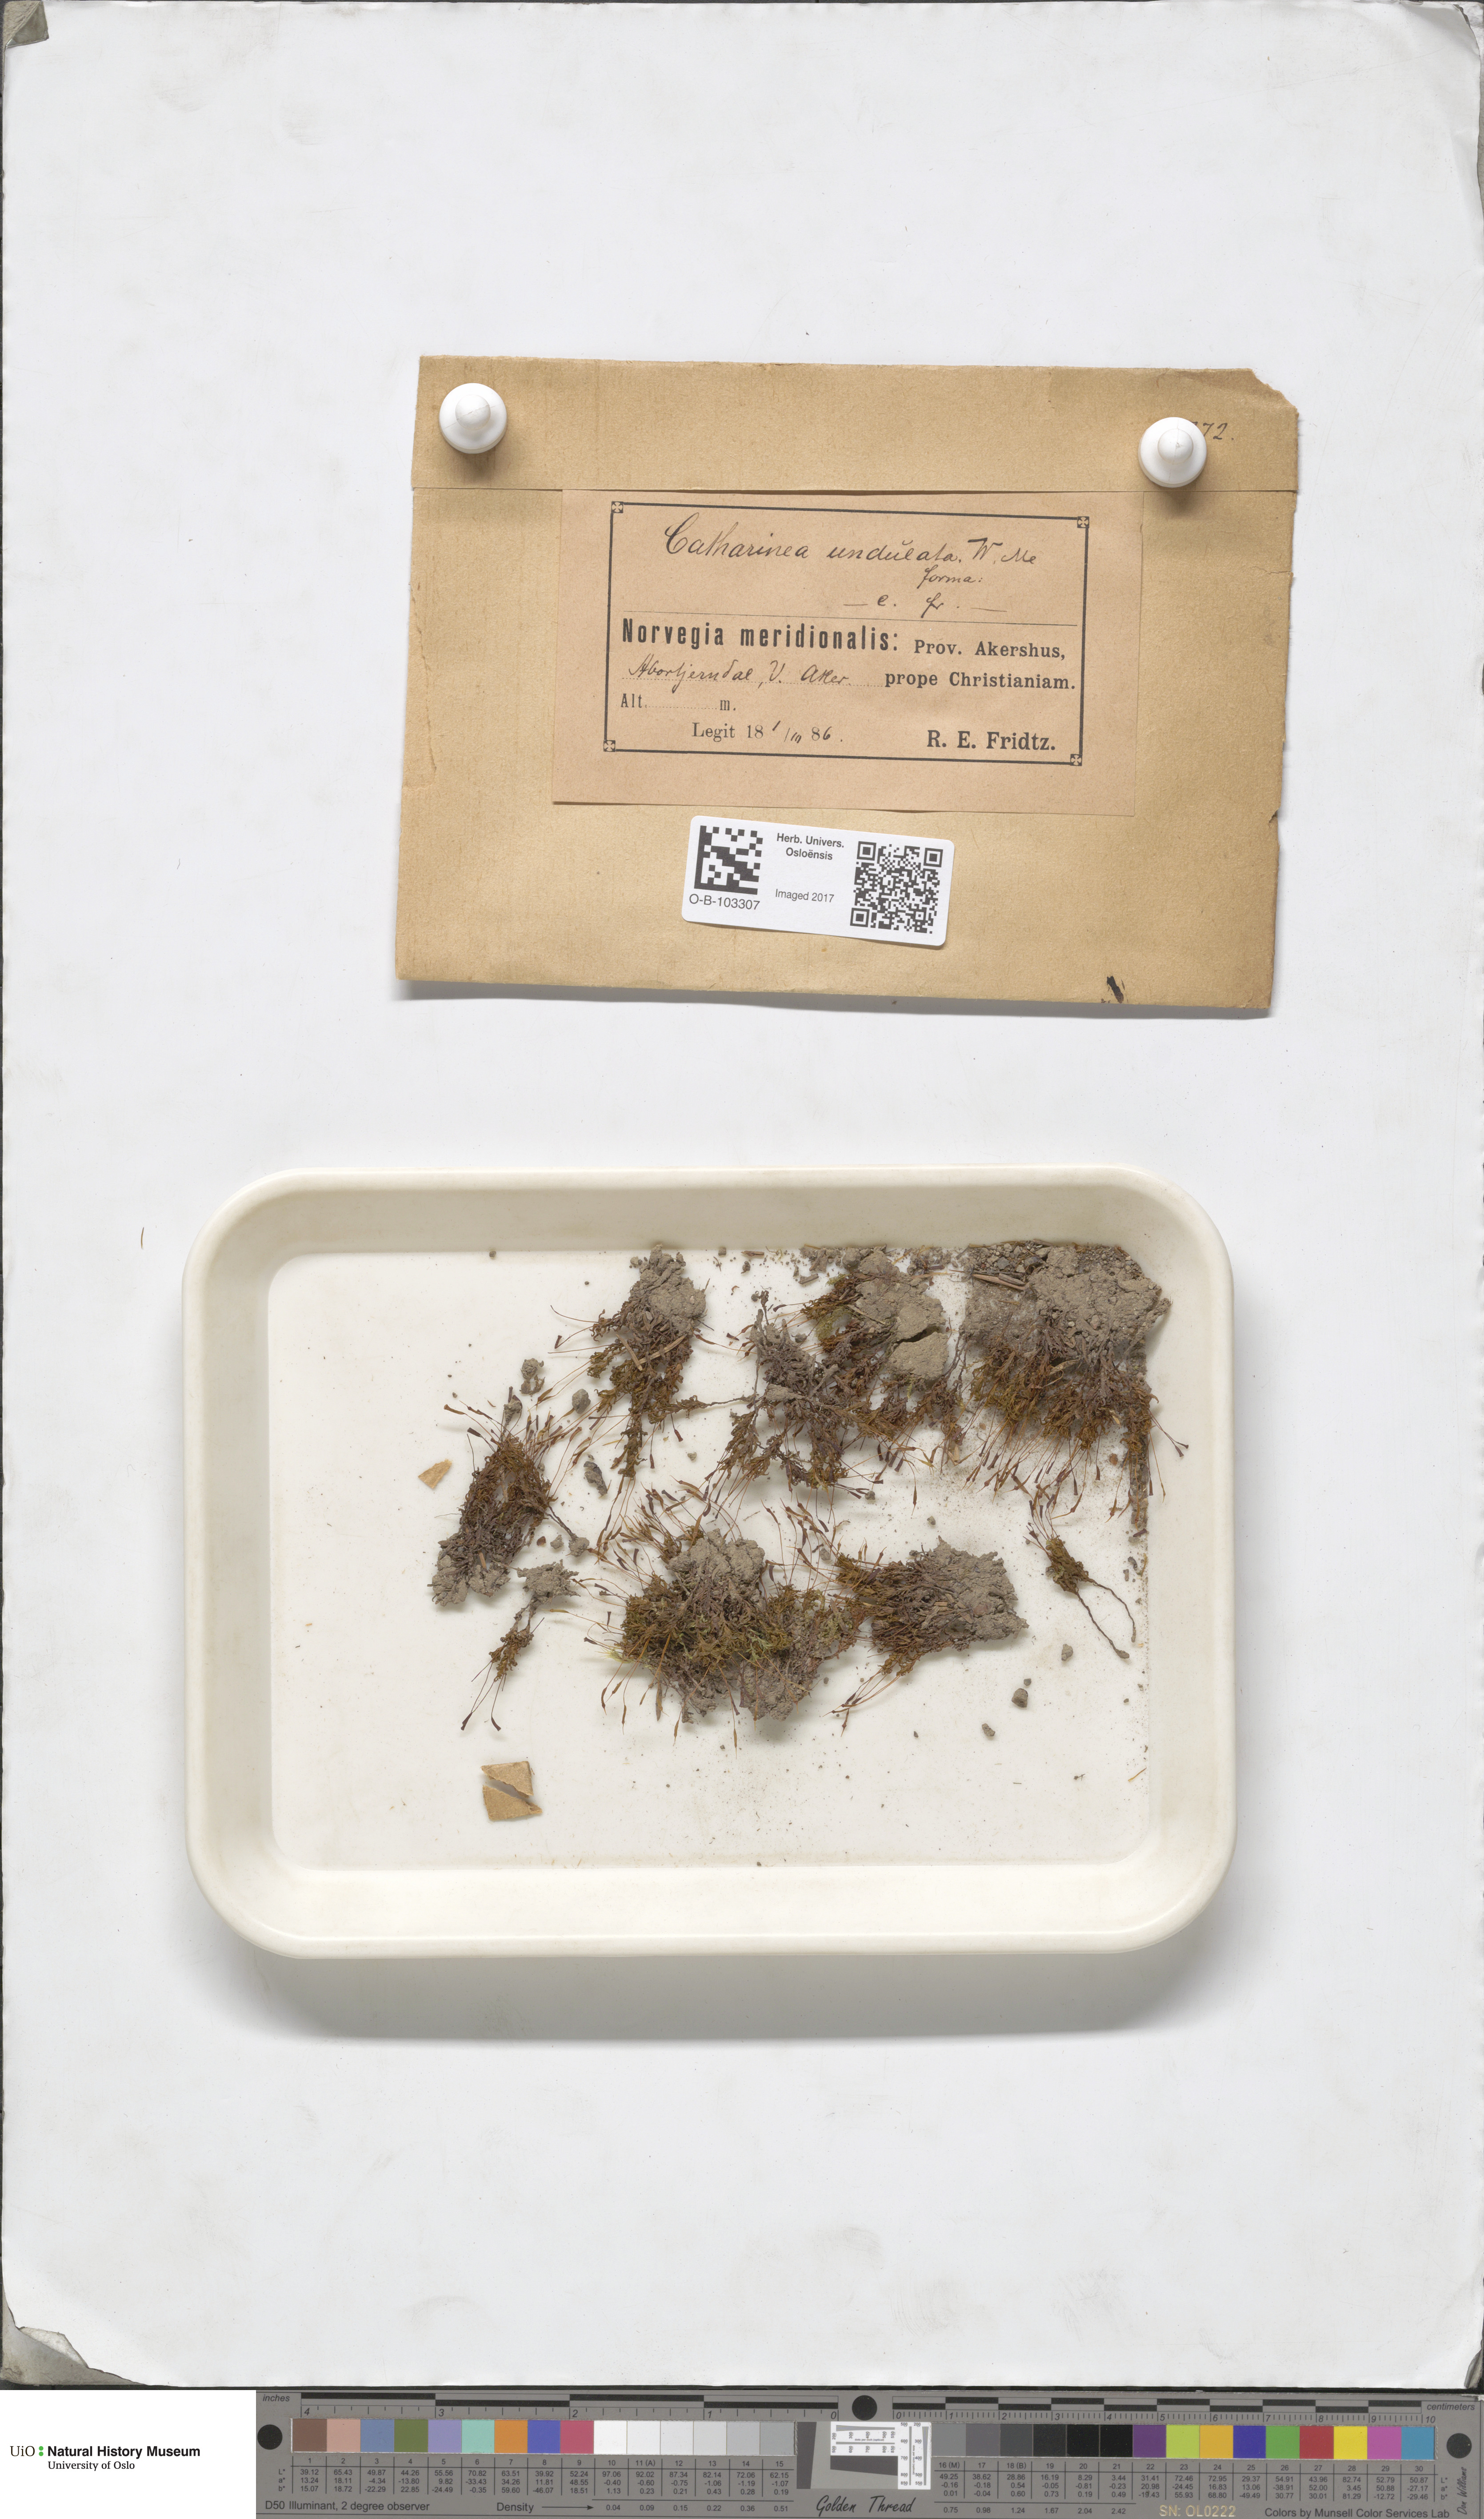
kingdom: Plantae
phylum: Bryophyta
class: Polytrichopsida
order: Polytrichales
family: Polytrichaceae
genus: Atrichum
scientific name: Atrichum undulatum
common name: Common smoothcap
